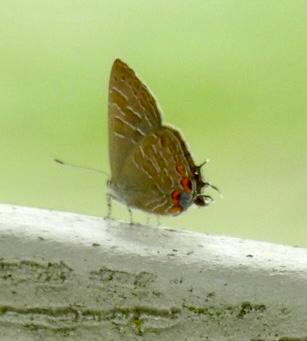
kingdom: Animalia
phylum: Arthropoda
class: Insecta
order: Lepidoptera
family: Lycaenidae
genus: Satyrium
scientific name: Satyrium liparops
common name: Striped Hairstreak
